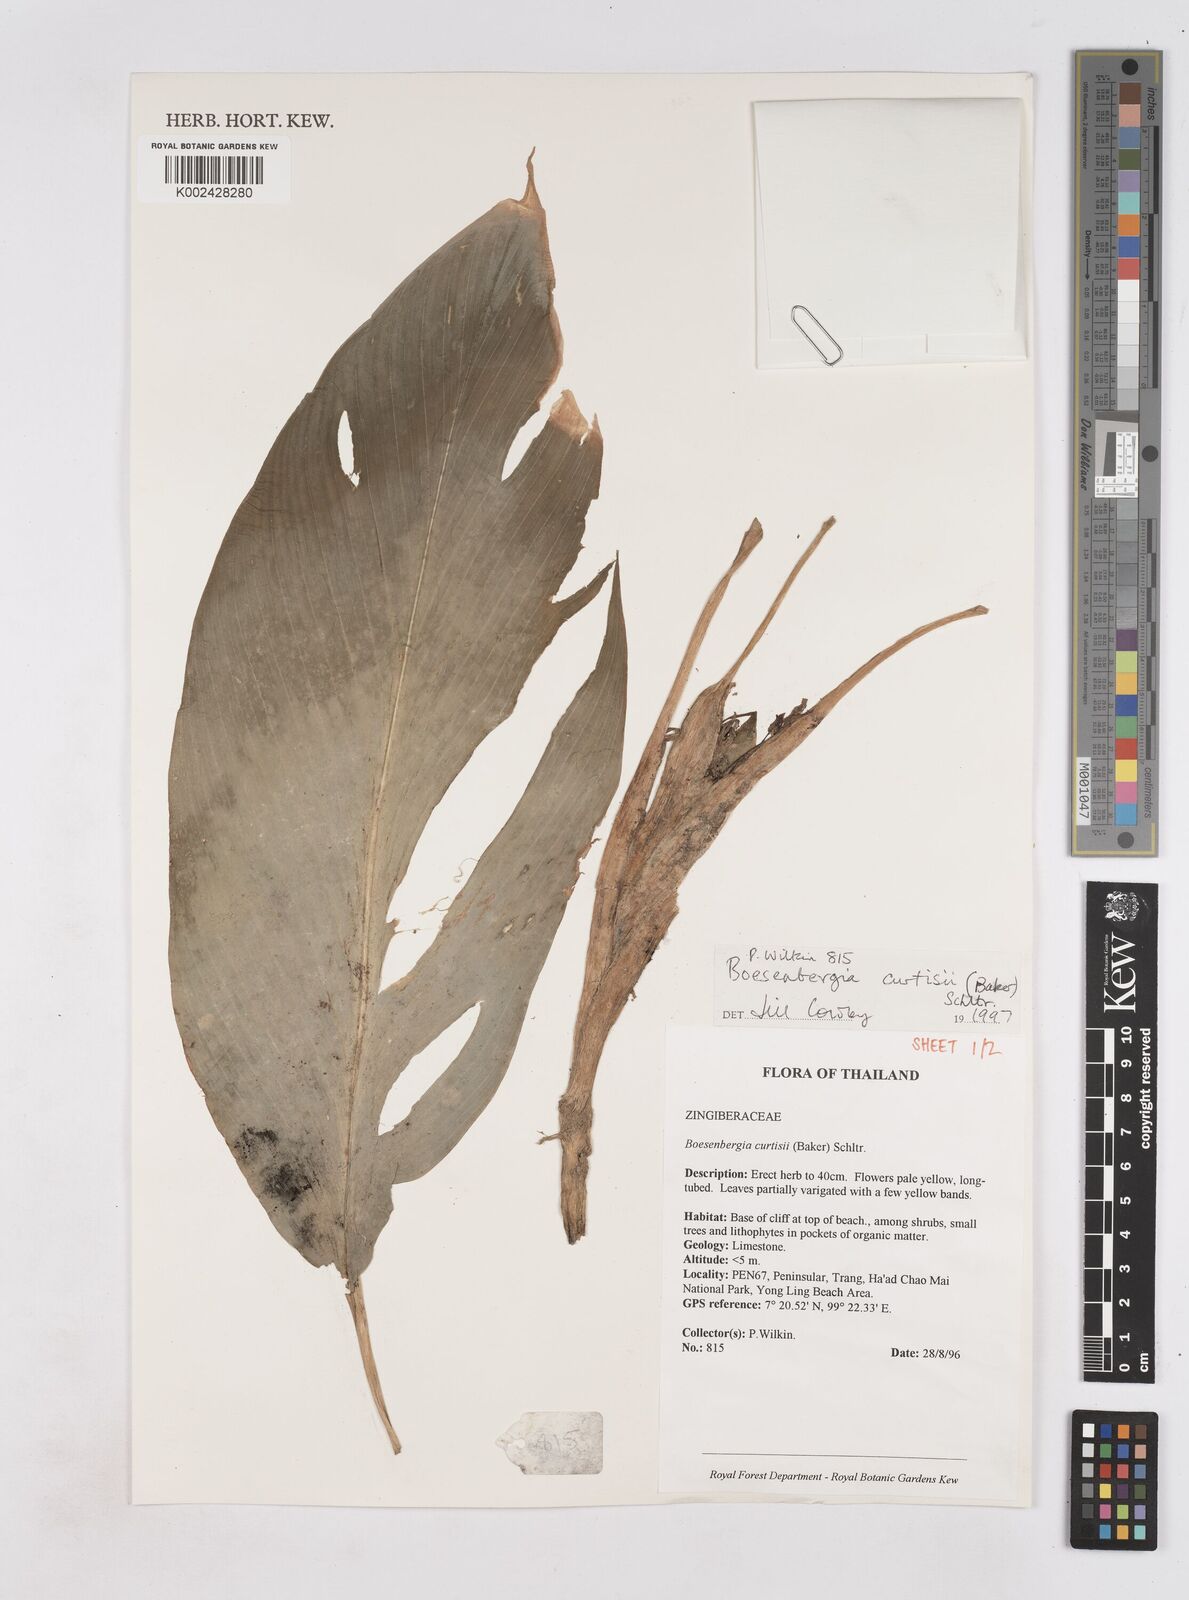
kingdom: Plantae
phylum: Tracheophyta
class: Liliopsida
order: Zingiberales
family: Zingiberaceae
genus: Boesenbergia
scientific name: Boesenbergia curtisii
